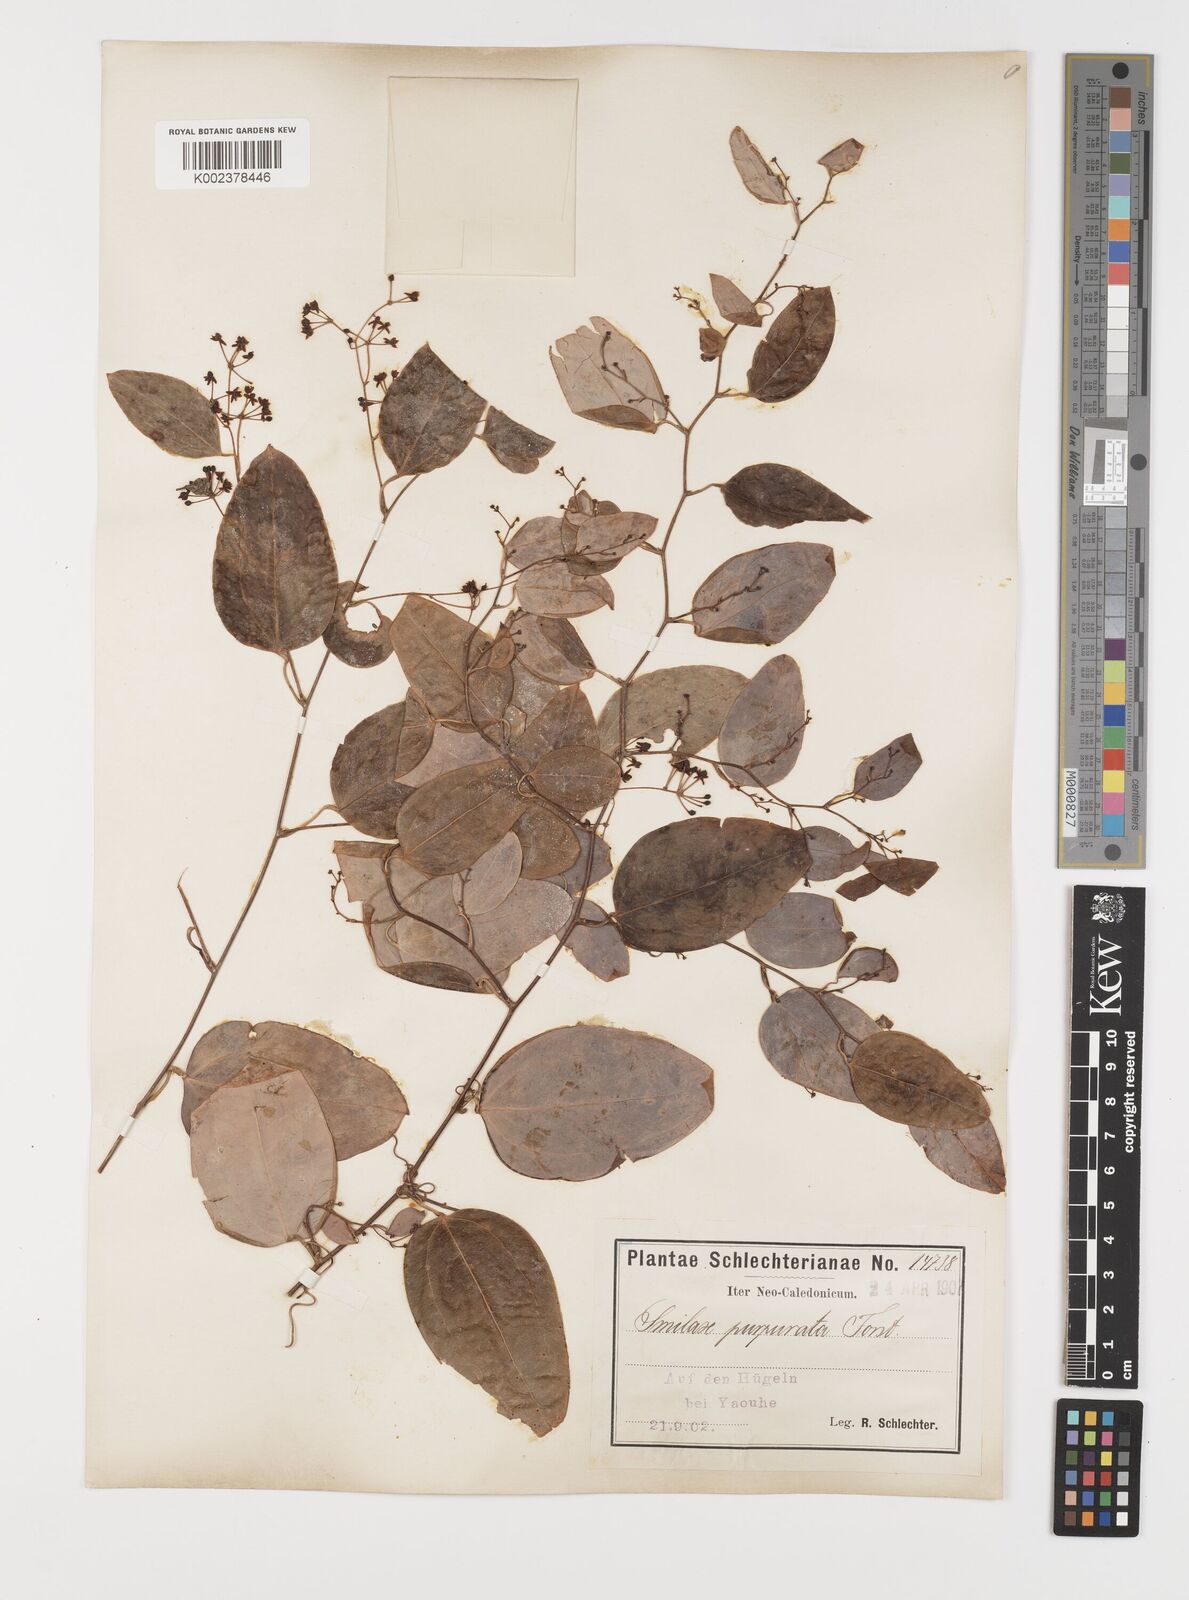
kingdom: Plantae
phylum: Tracheophyta
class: Liliopsida
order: Liliales
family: Smilacaceae
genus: Smilax
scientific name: Smilax purpurata
